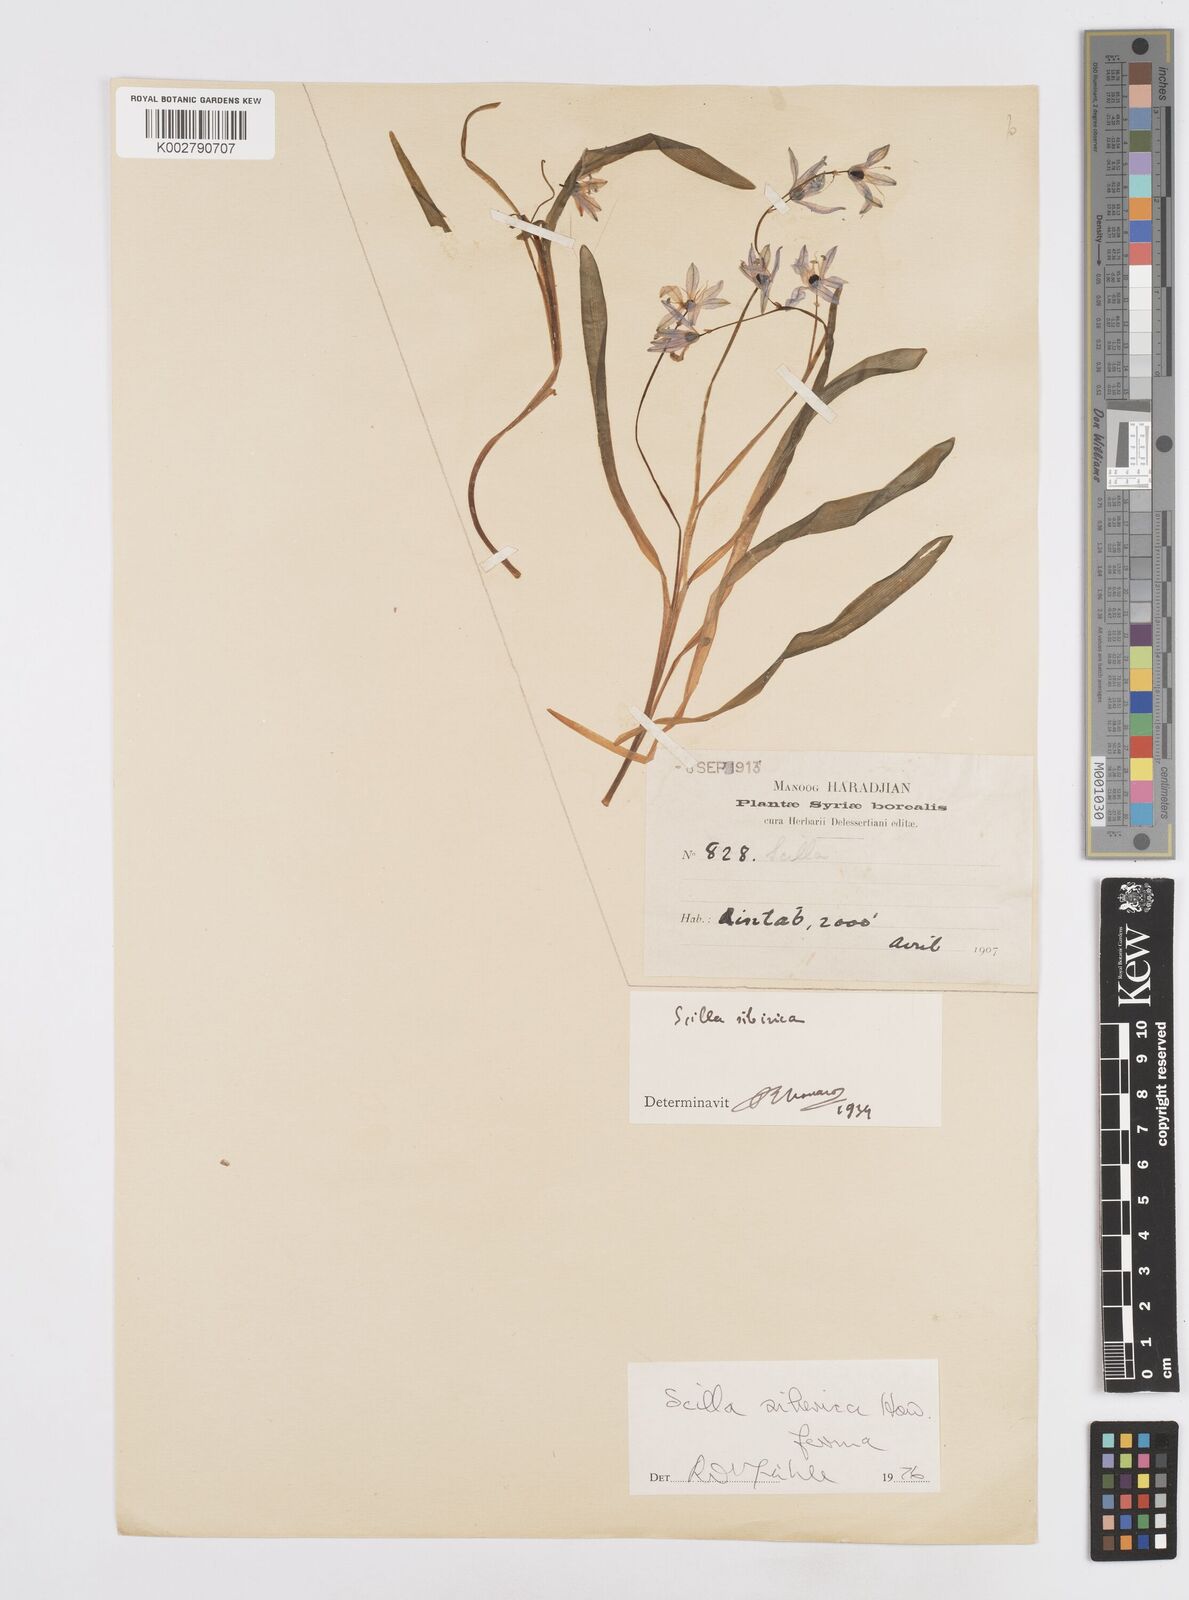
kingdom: Plantae
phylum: Tracheophyta
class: Liliopsida
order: Asparagales
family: Asparagaceae
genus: Scilla
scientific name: Scilla siberica
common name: Siberian squill
